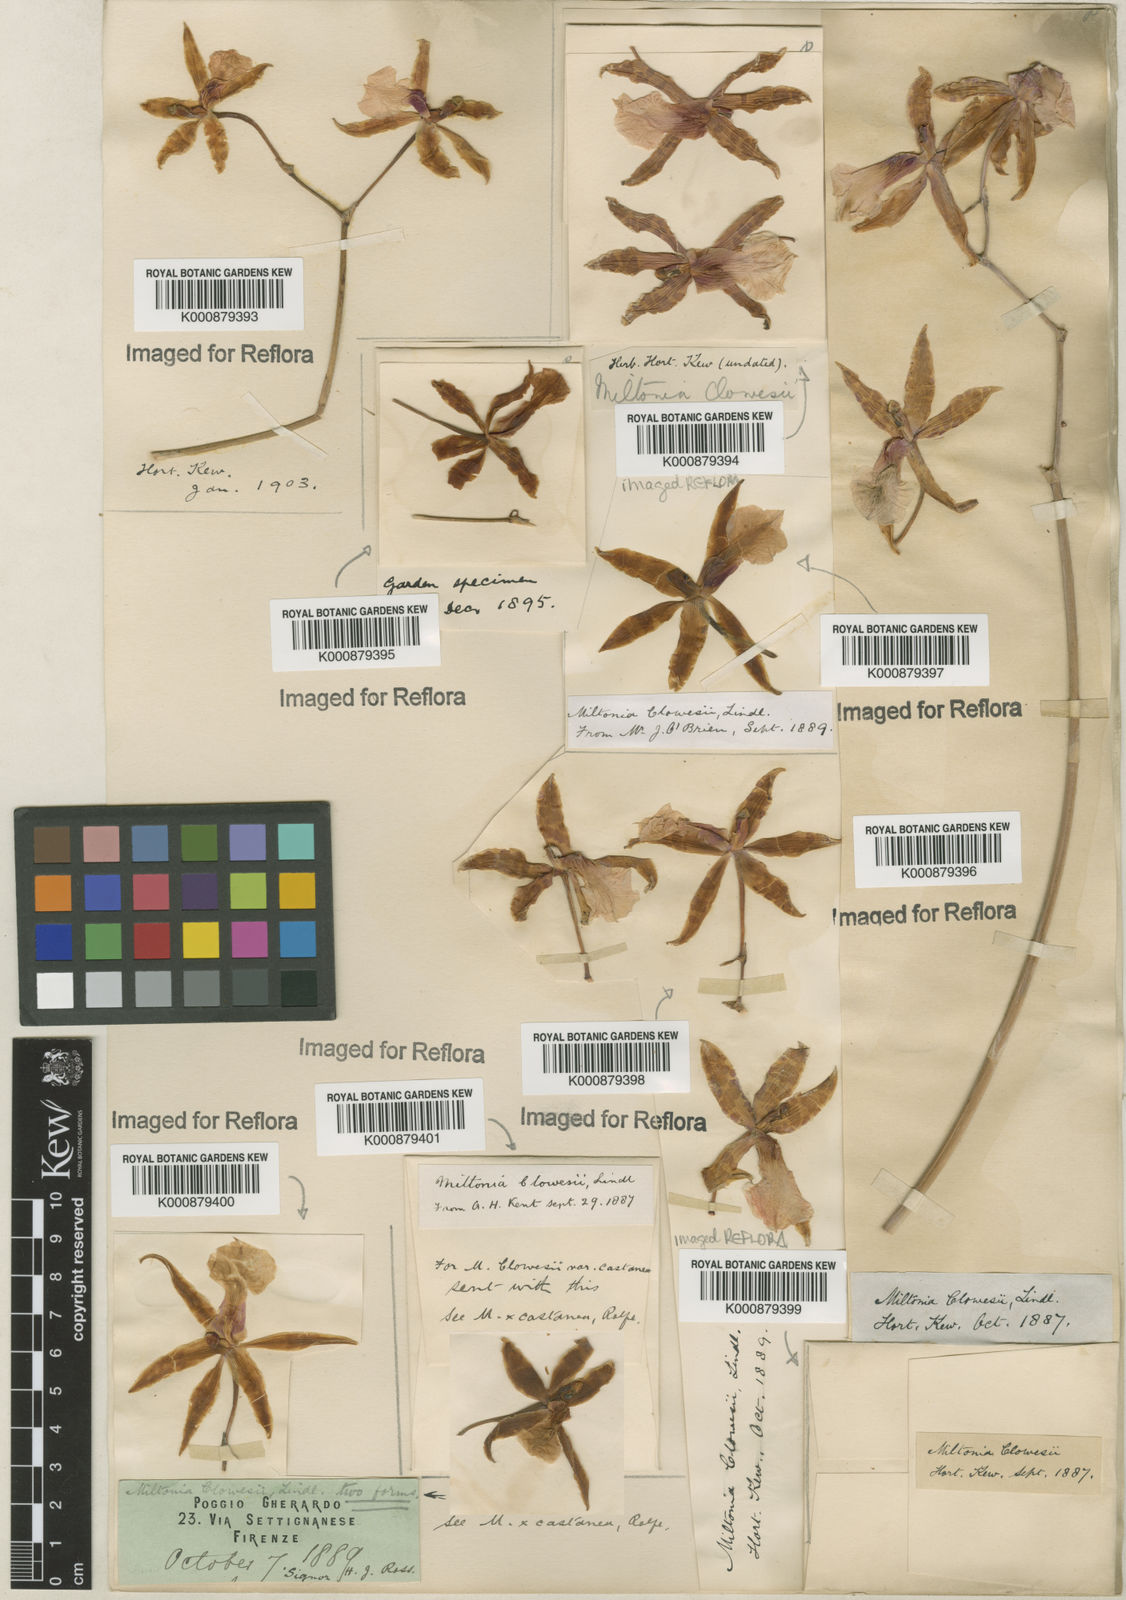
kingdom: Plantae
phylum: Tracheophyta
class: Liliopsida
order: Asparagales
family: Orchidaceae
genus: Miltonia
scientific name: Miltonia clowesii
